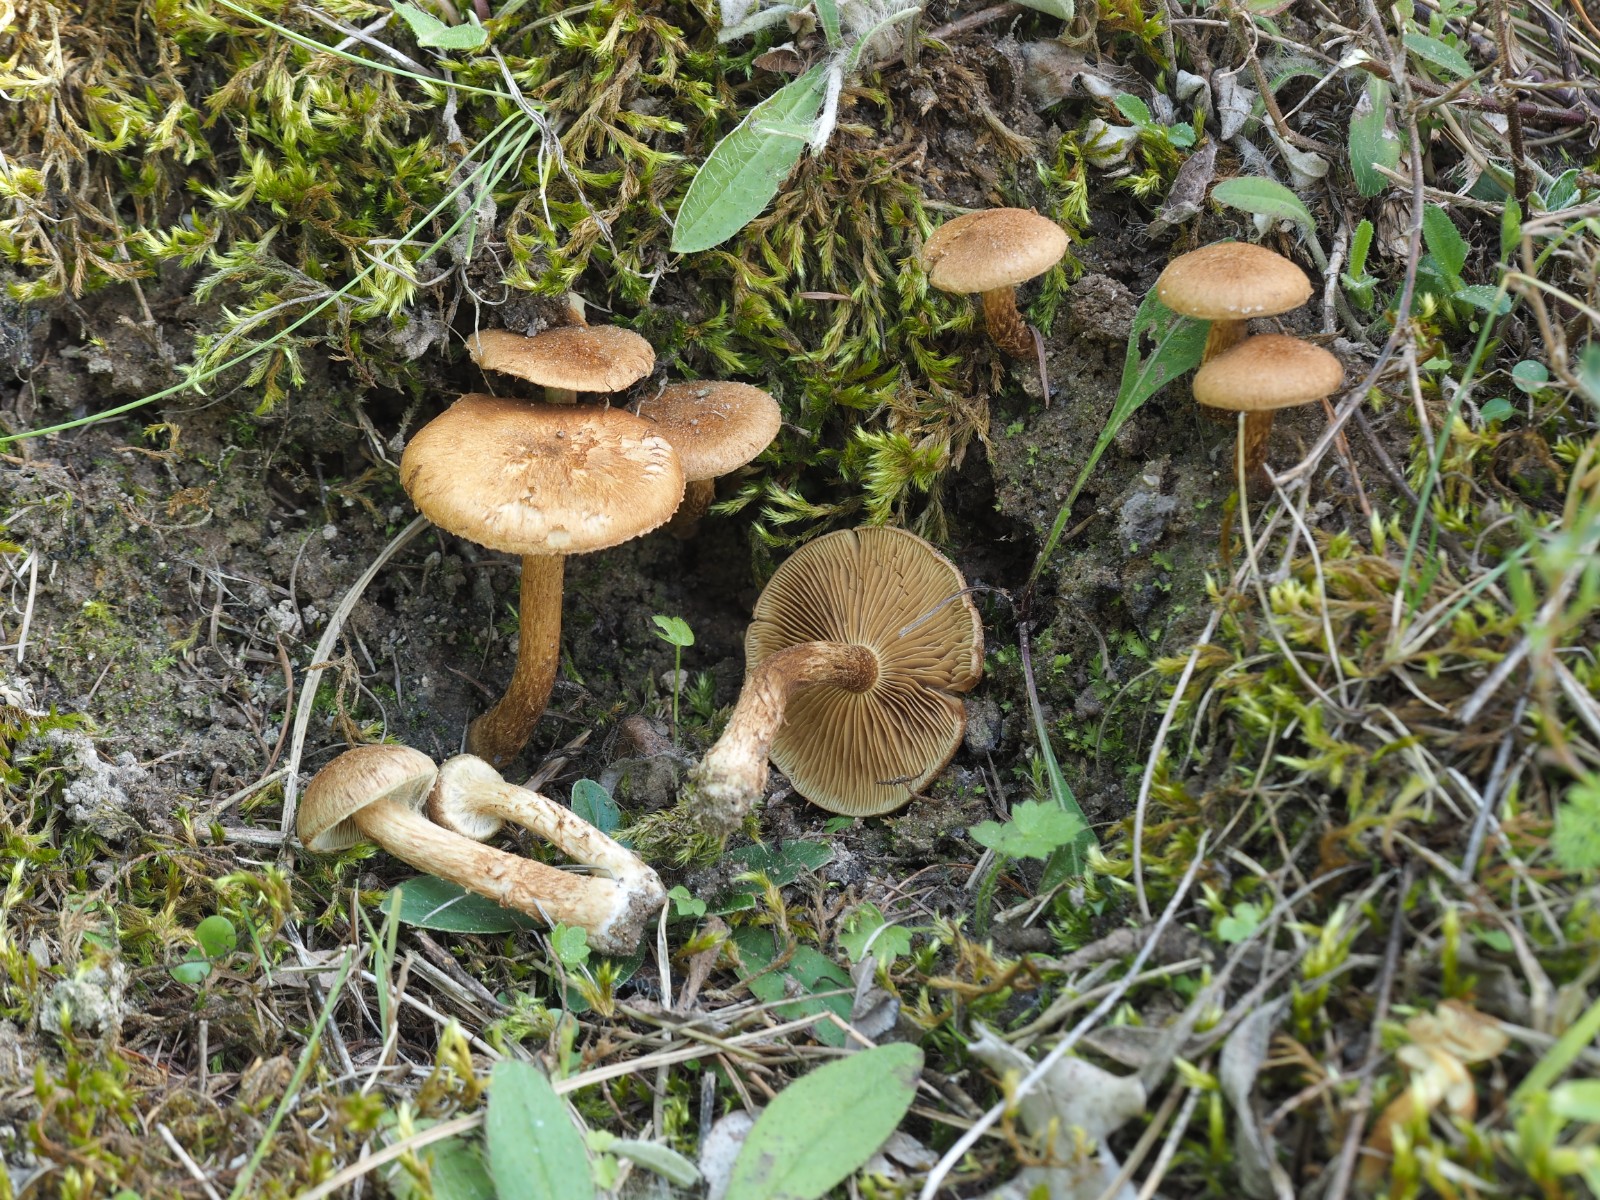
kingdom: Fungi
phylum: Basidiomycota
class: Agaricomycetes
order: Agaricales
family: Inocybaceae
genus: Inocybe
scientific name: Inocybe dulcamara
